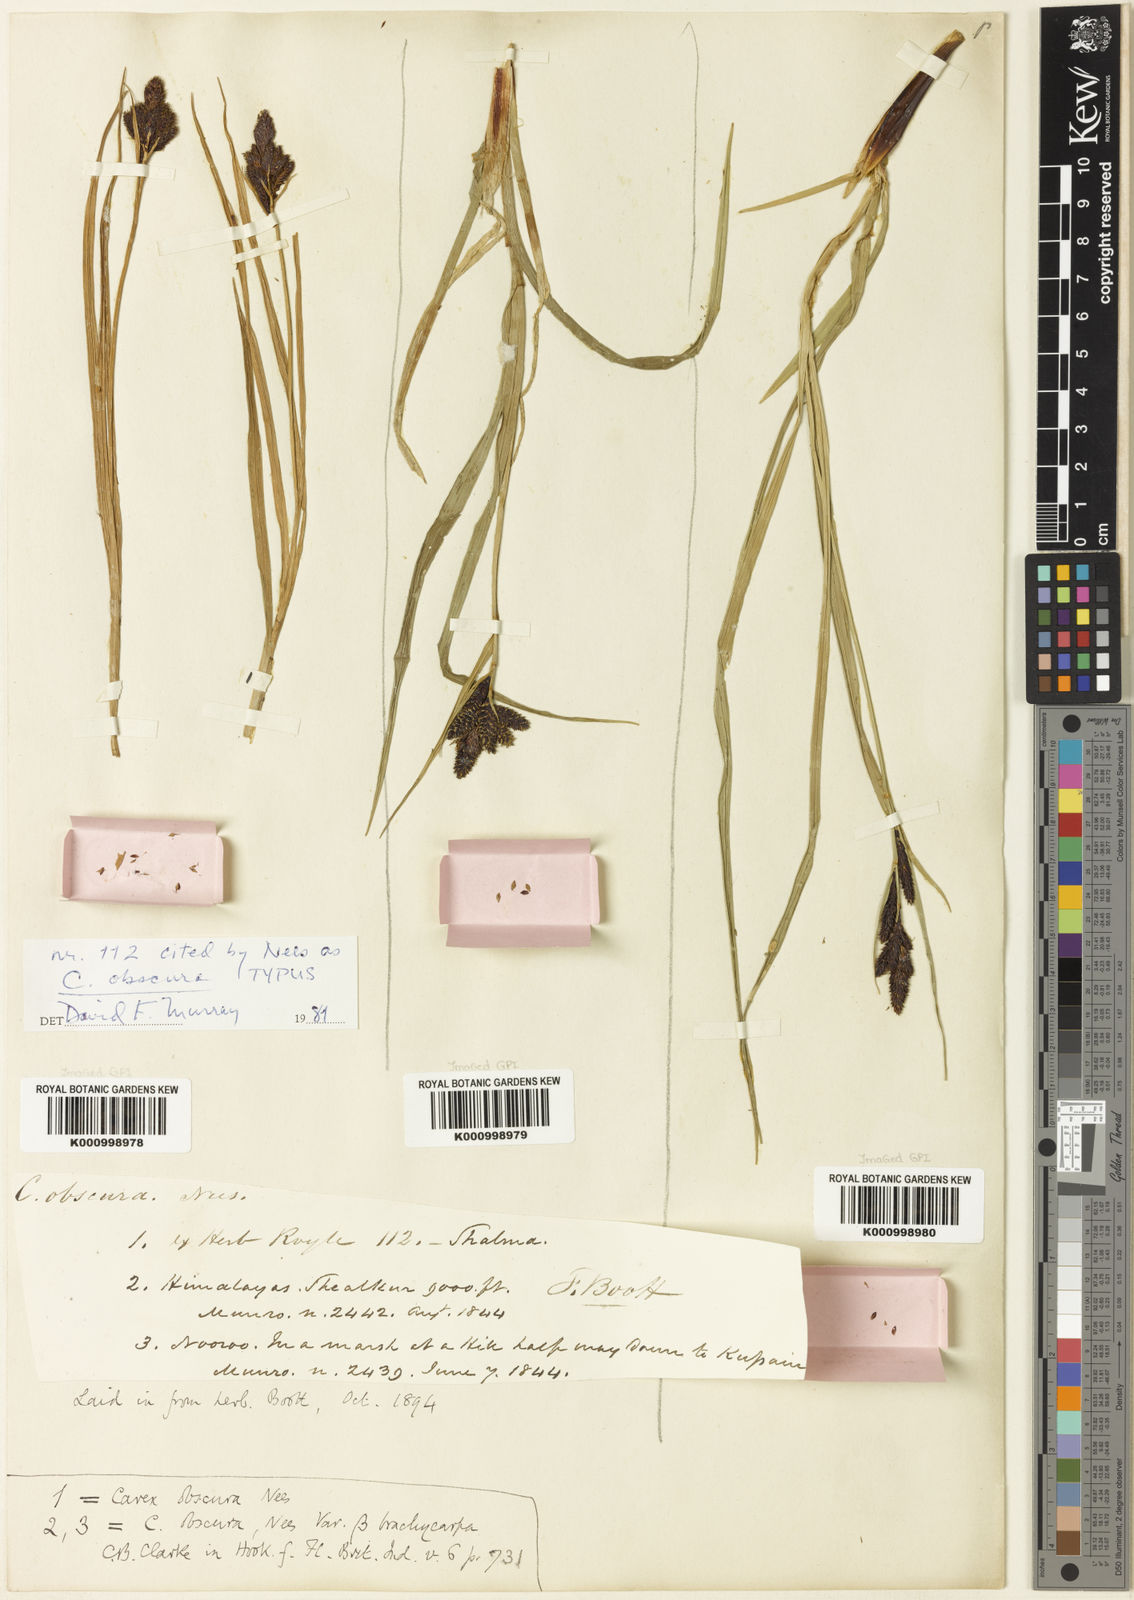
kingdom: Plantae
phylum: Tracheophyta
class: Liliopsida
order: Poales
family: Cyperaceae
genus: Carex
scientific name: Carex obscura
